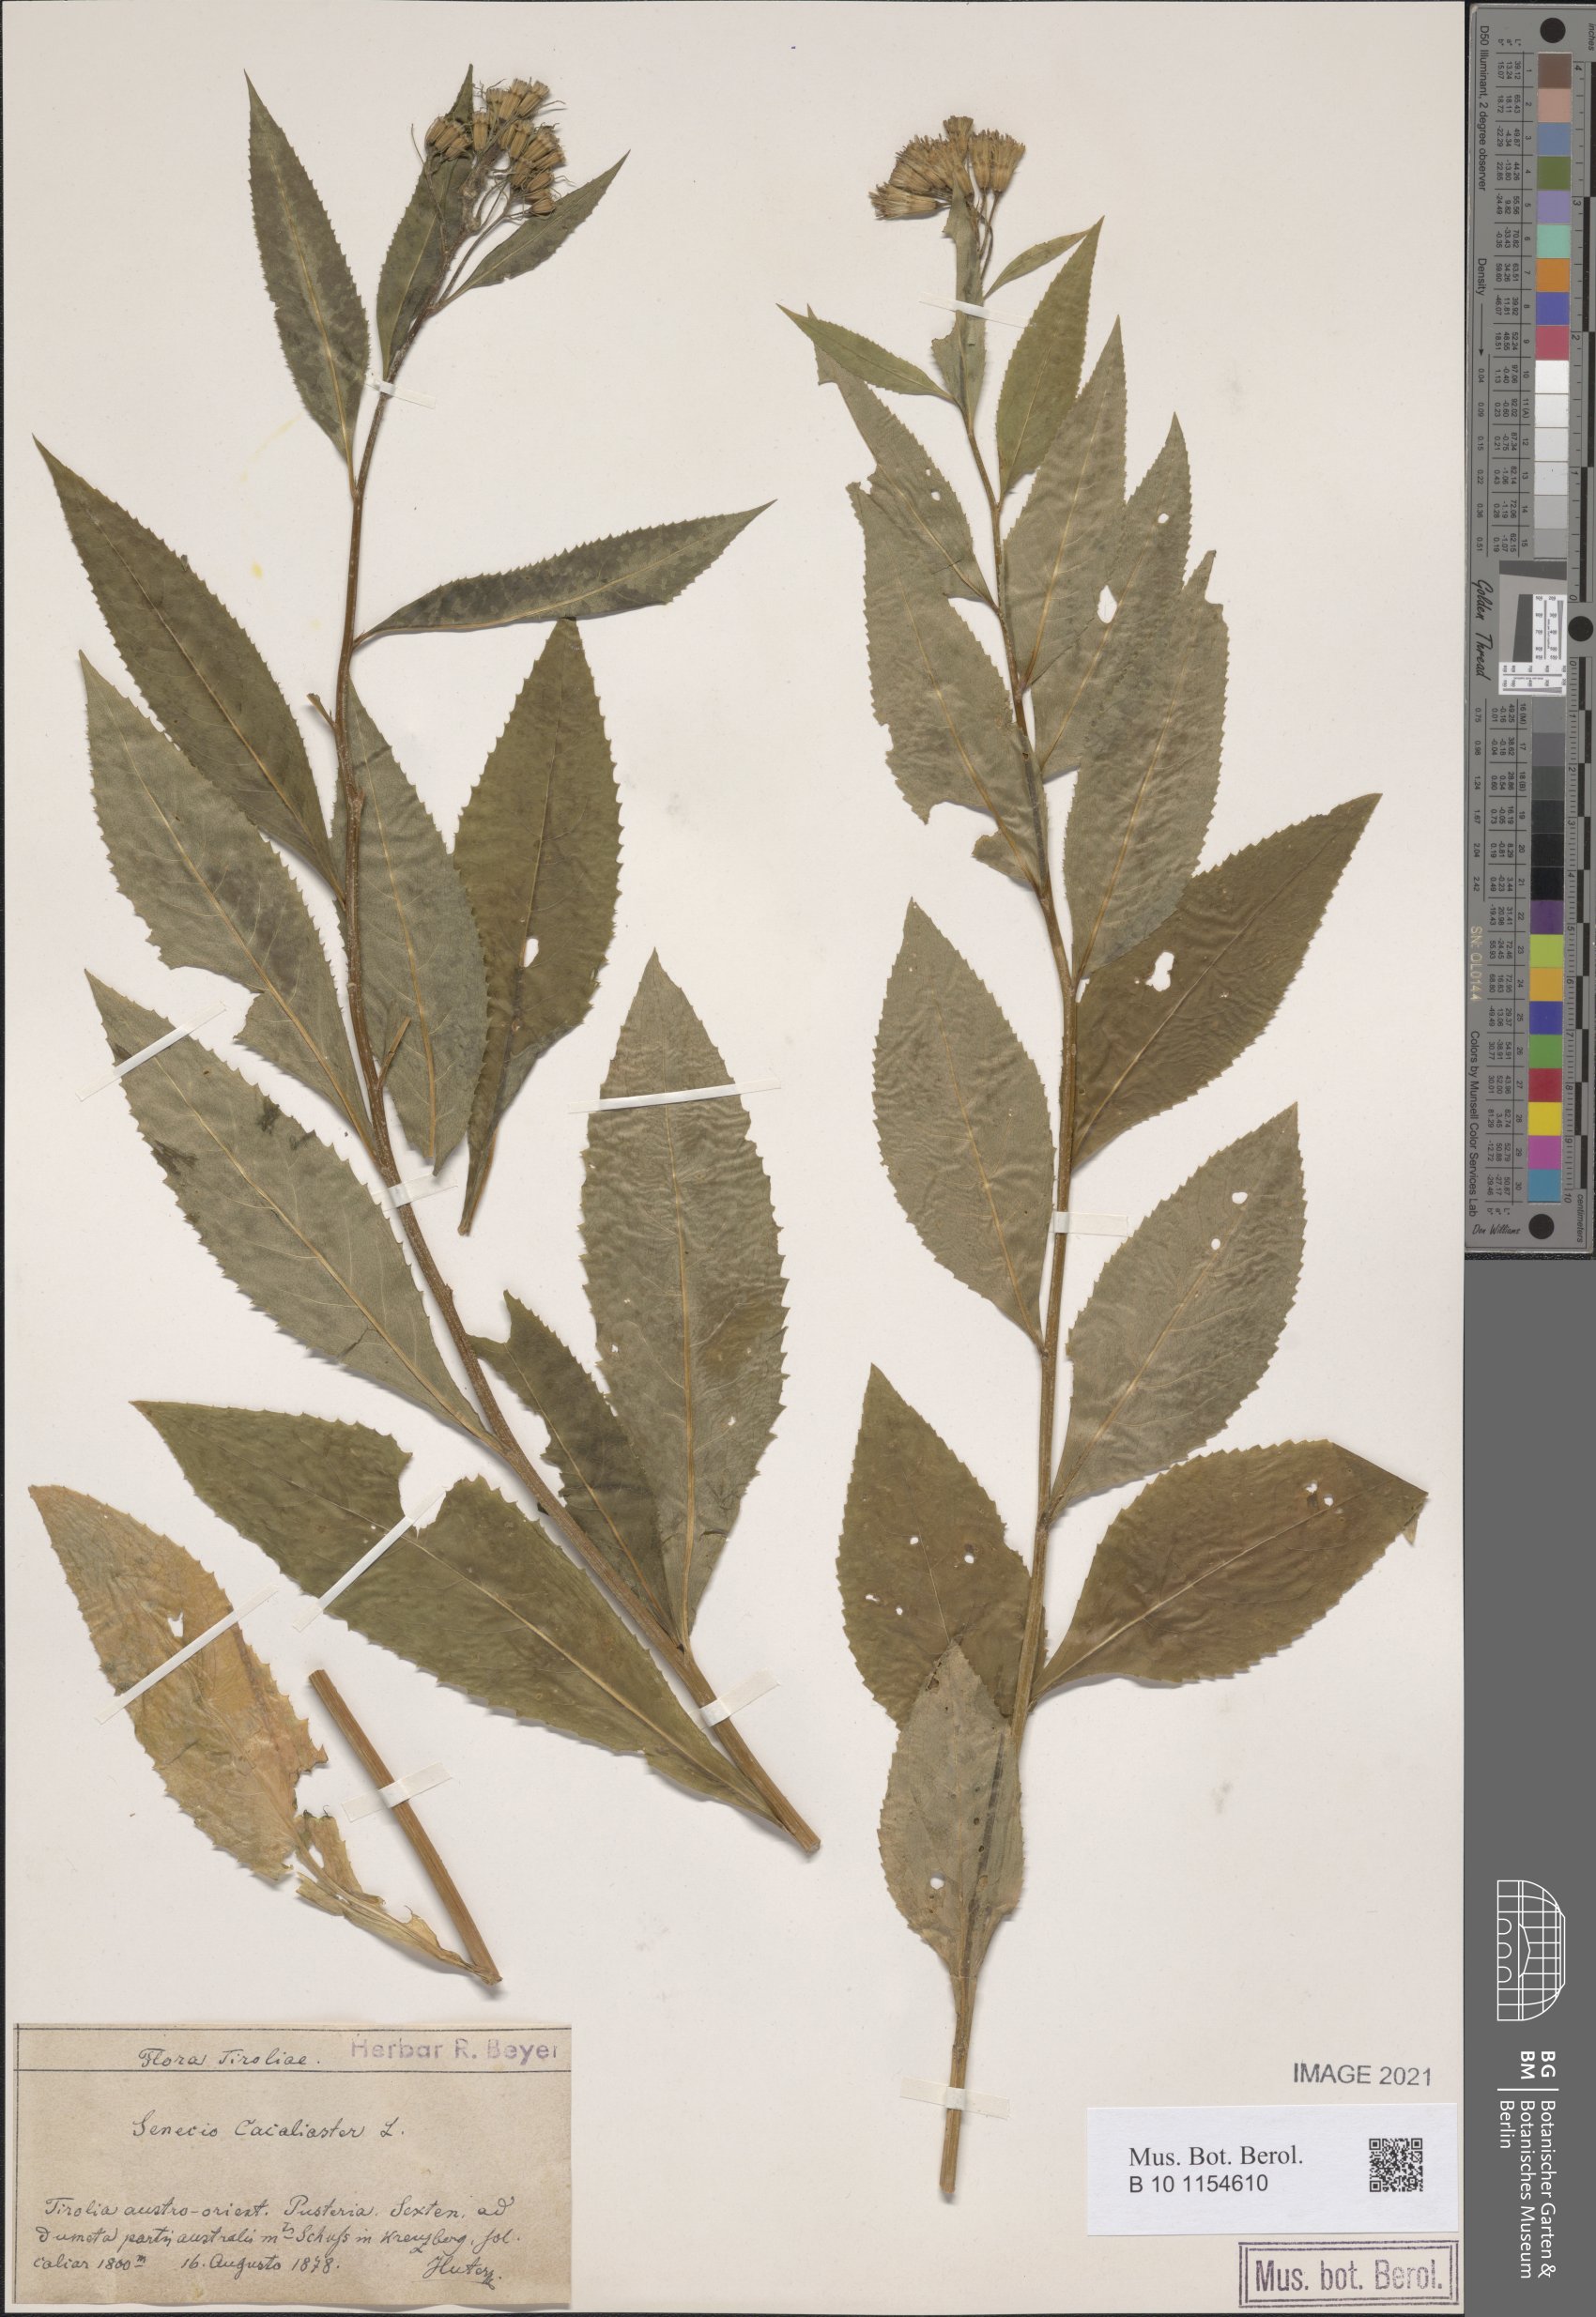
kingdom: Plantae
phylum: Tracheophyta
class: Magnoliopsida
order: Asterales
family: Asteraceae
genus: Senecio
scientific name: Senecio cacaliaster
